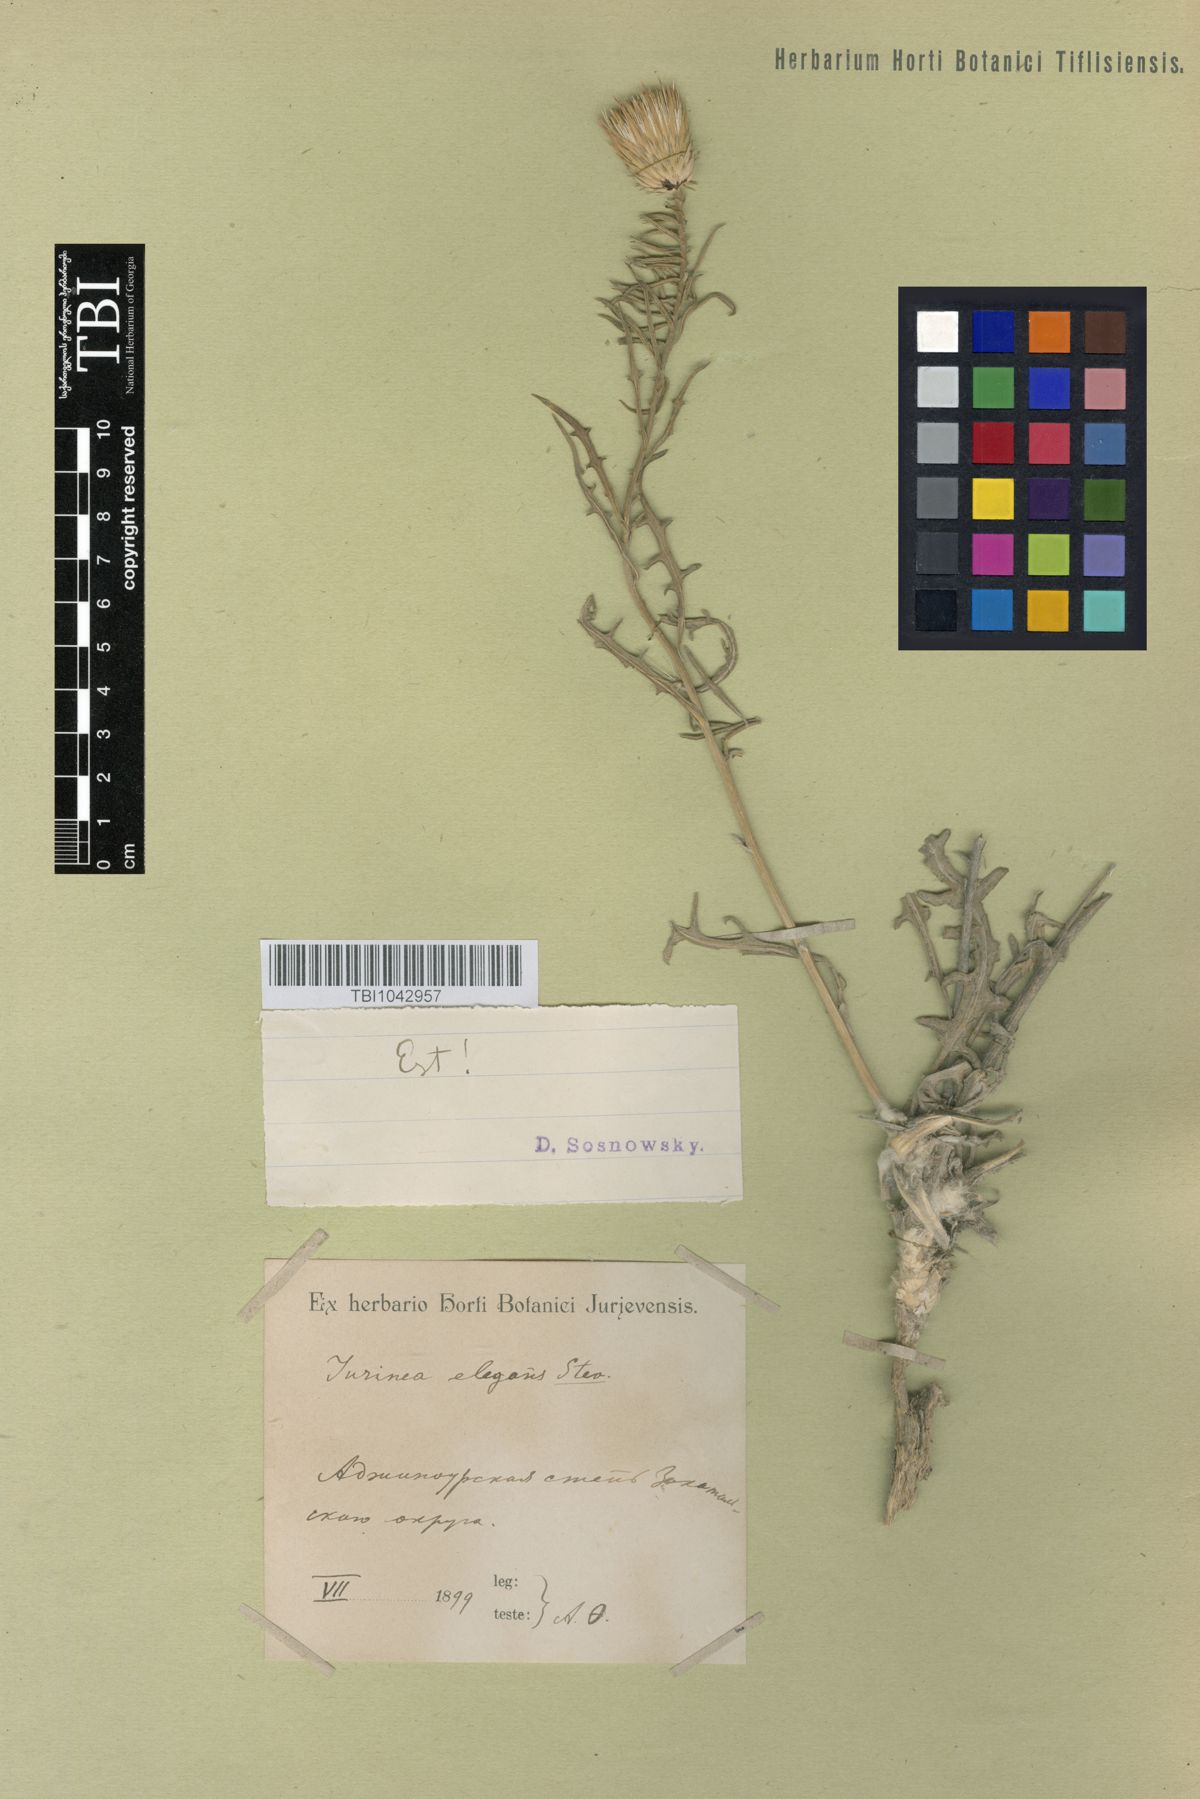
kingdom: Plantae
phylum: Tracheophyta
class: Magnoliopsida
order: Asterales
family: Asteraceae
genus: Jurinea
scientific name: Jurinea elegans
